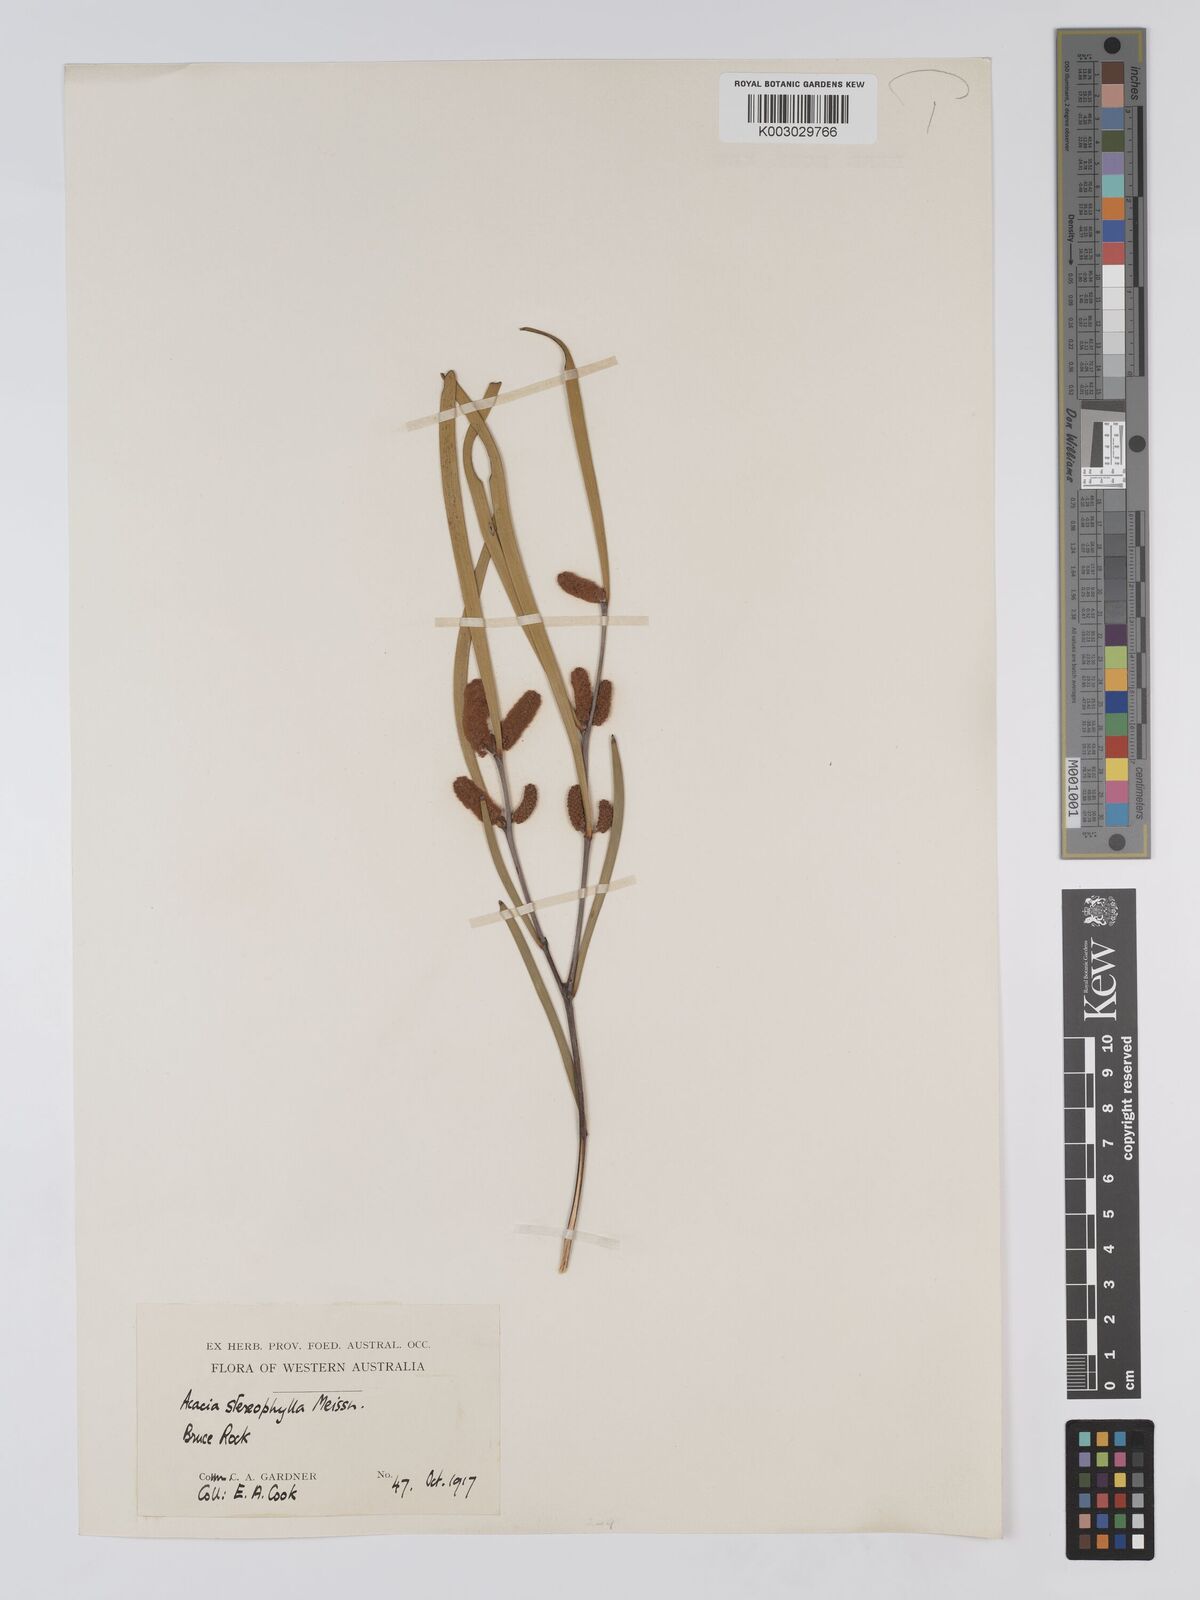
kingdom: Plantae
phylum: Tracheophyta
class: Magnoliopsida
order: Fabales
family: Fabaceae
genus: Acacia
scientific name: Acacia stereophylla
